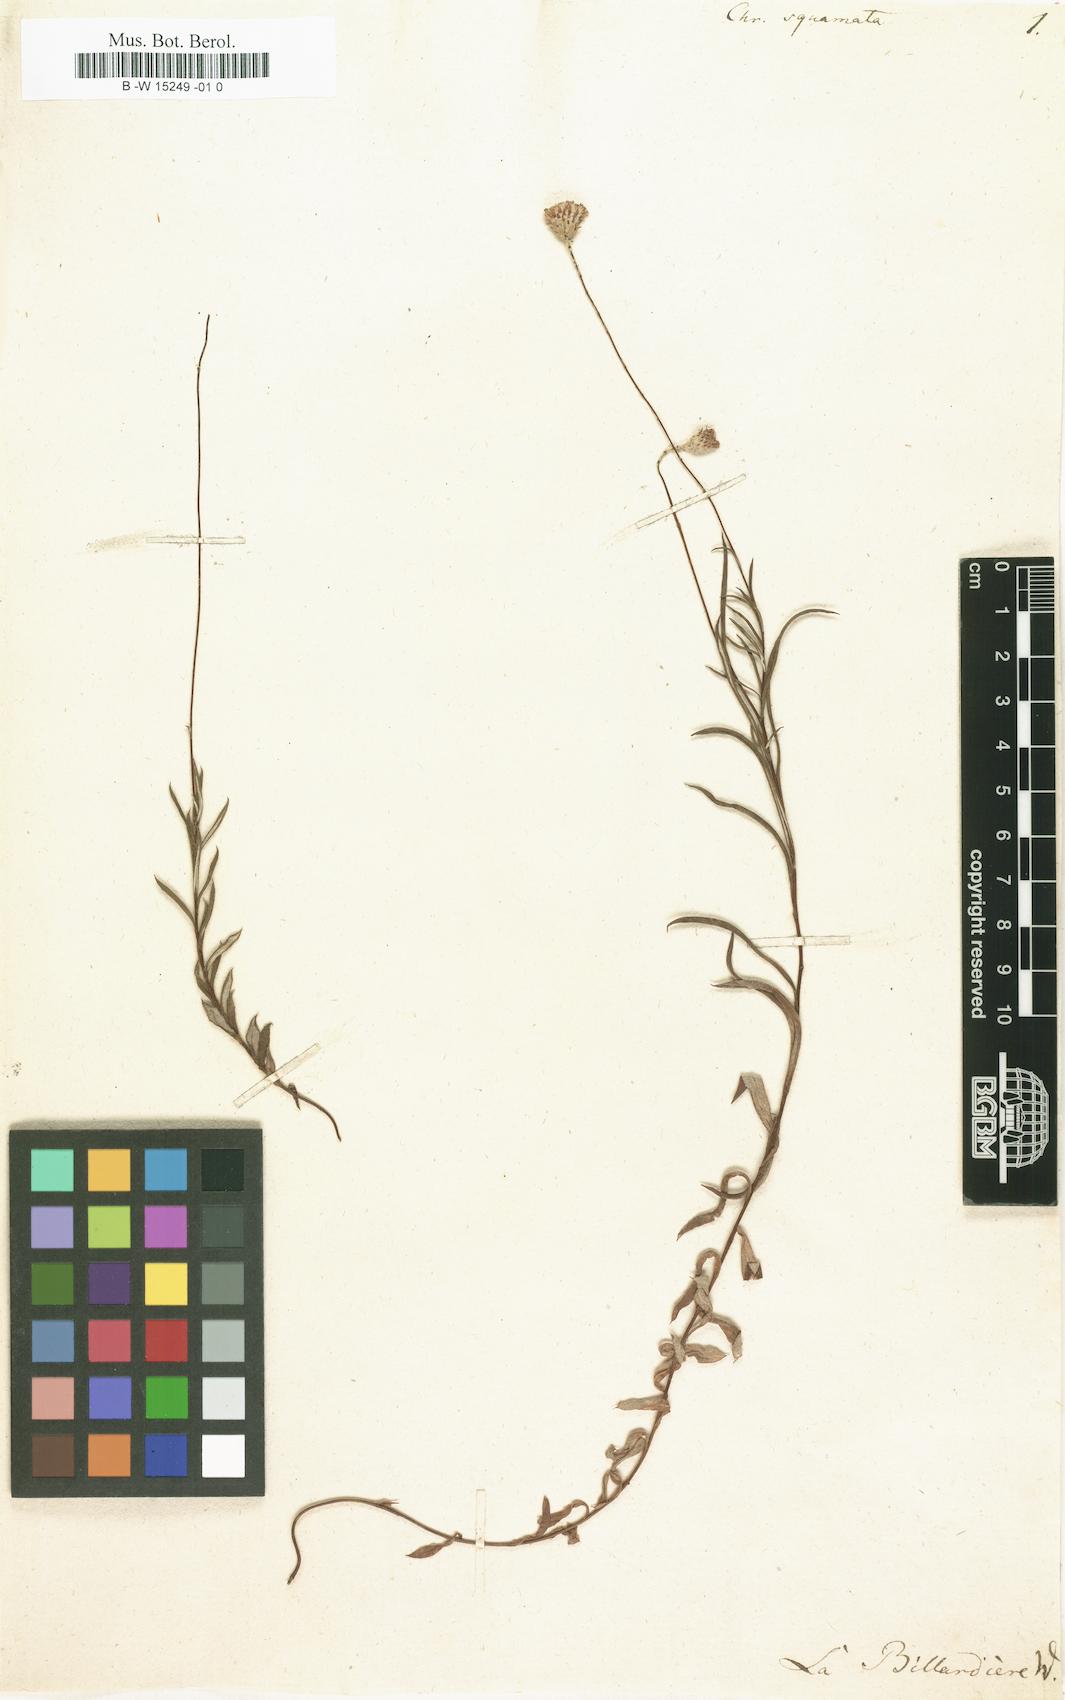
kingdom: Plantae
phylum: Tracheophyta
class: Magnoliopsida
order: Asterales
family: Asteraceae
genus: Leptorhynchos
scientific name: Leptorhynchos squamatus
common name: Scaly-buttons
